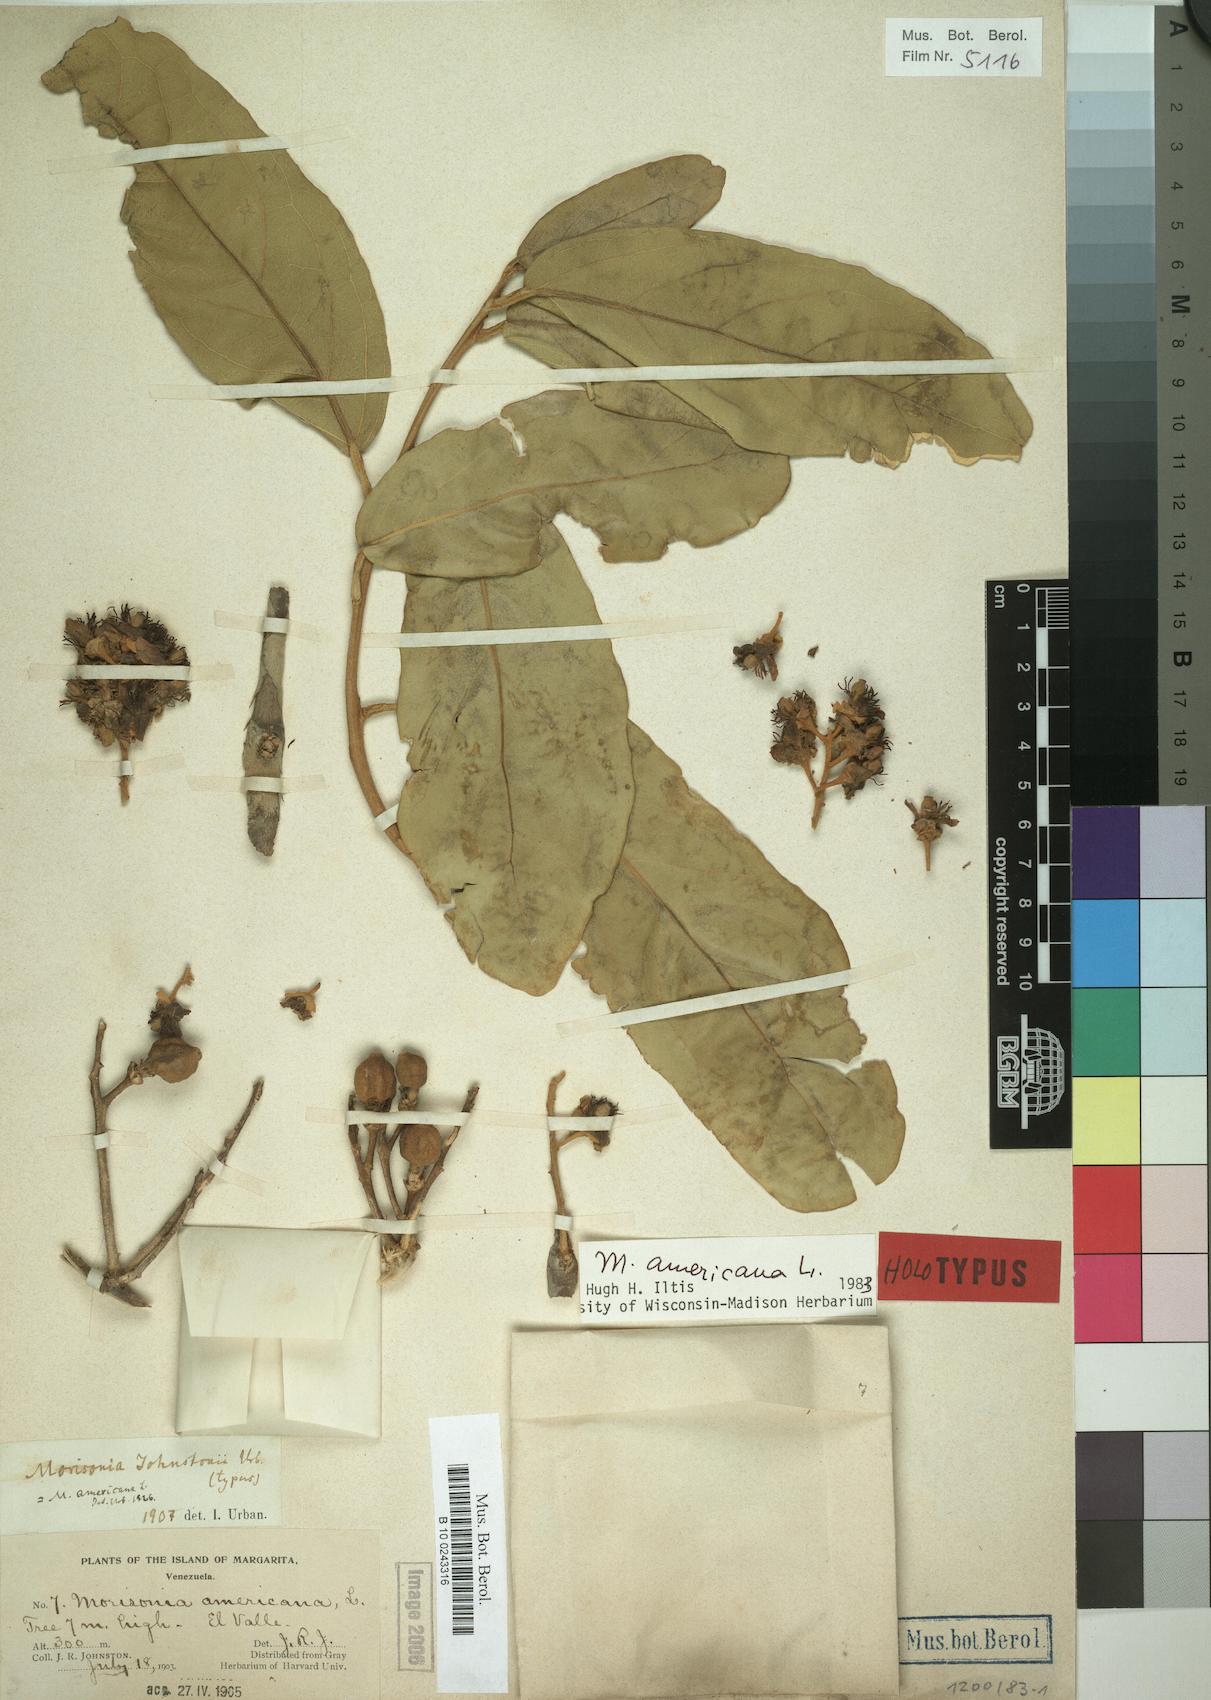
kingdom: Plantae
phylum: Tracheophyta
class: Magnoliopsida
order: Brassicales
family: Capparaceae
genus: Morisonia
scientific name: Morisonia americana
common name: Wild mesple
